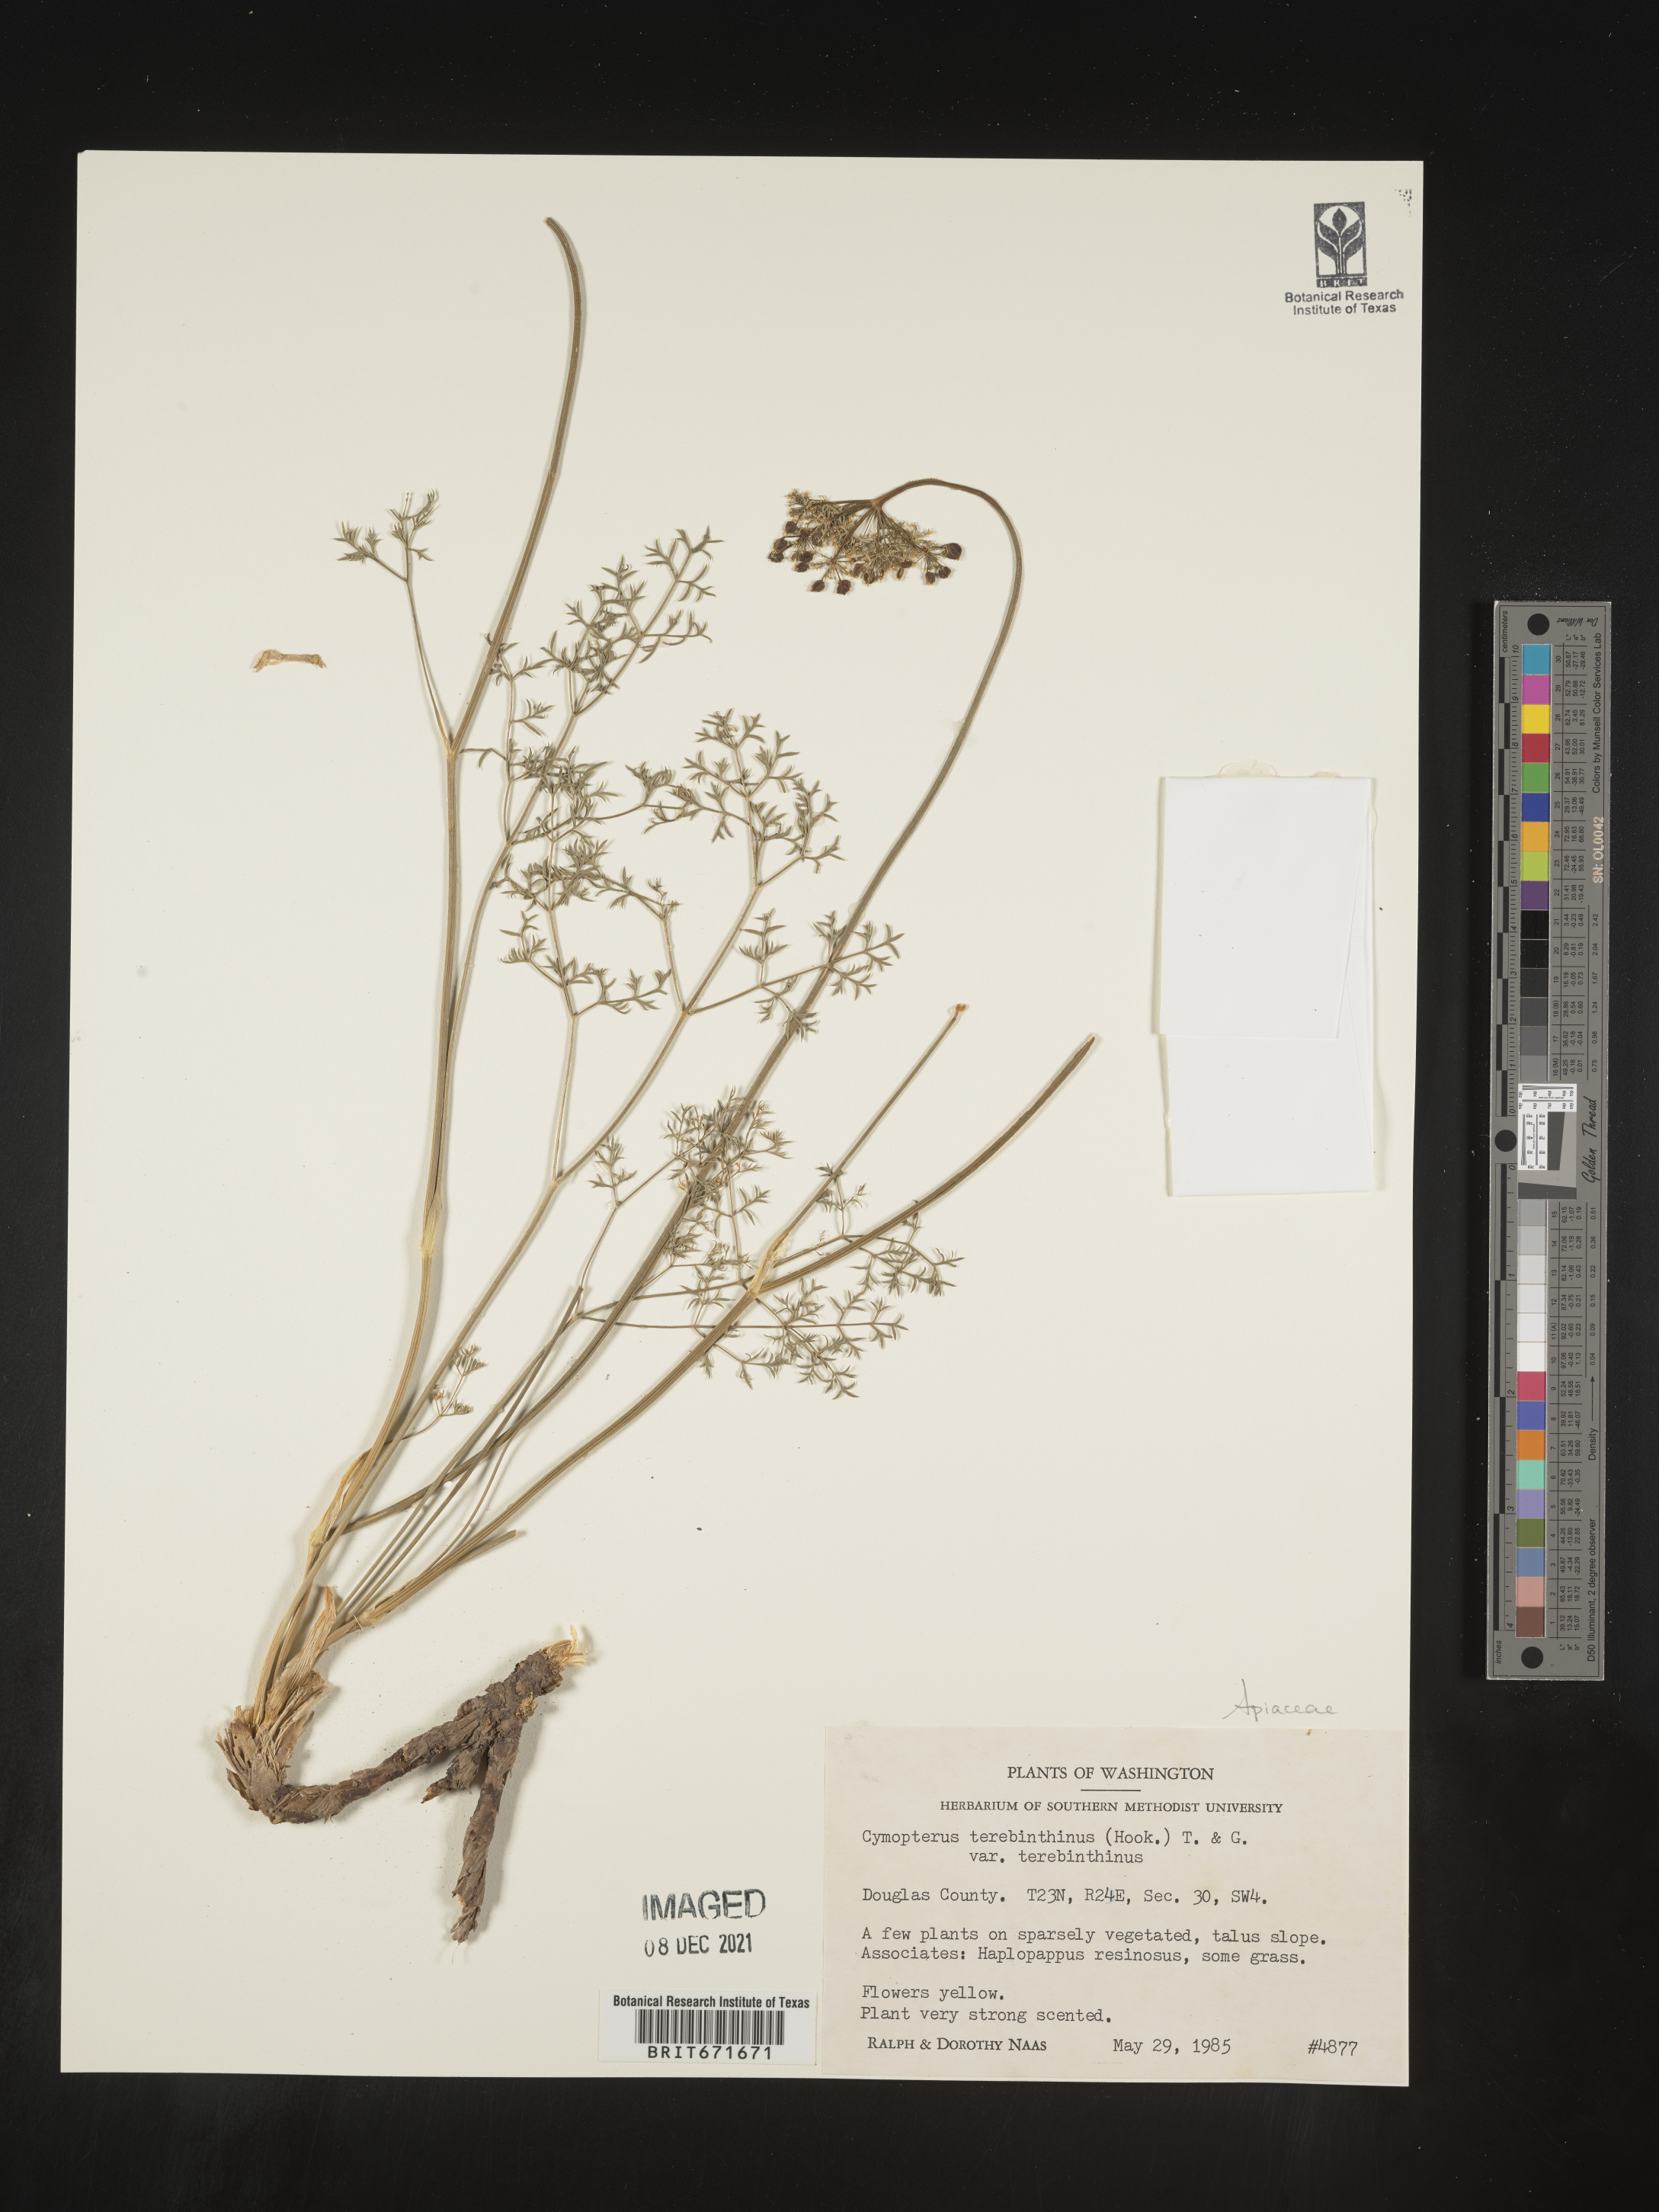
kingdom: Plantae
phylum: Tracheophyta
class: Magnoliopsida
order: Apiales
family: Apiaceae
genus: Pteryxia
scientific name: Pteryxia terebinthina
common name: Turpentine wavewing
